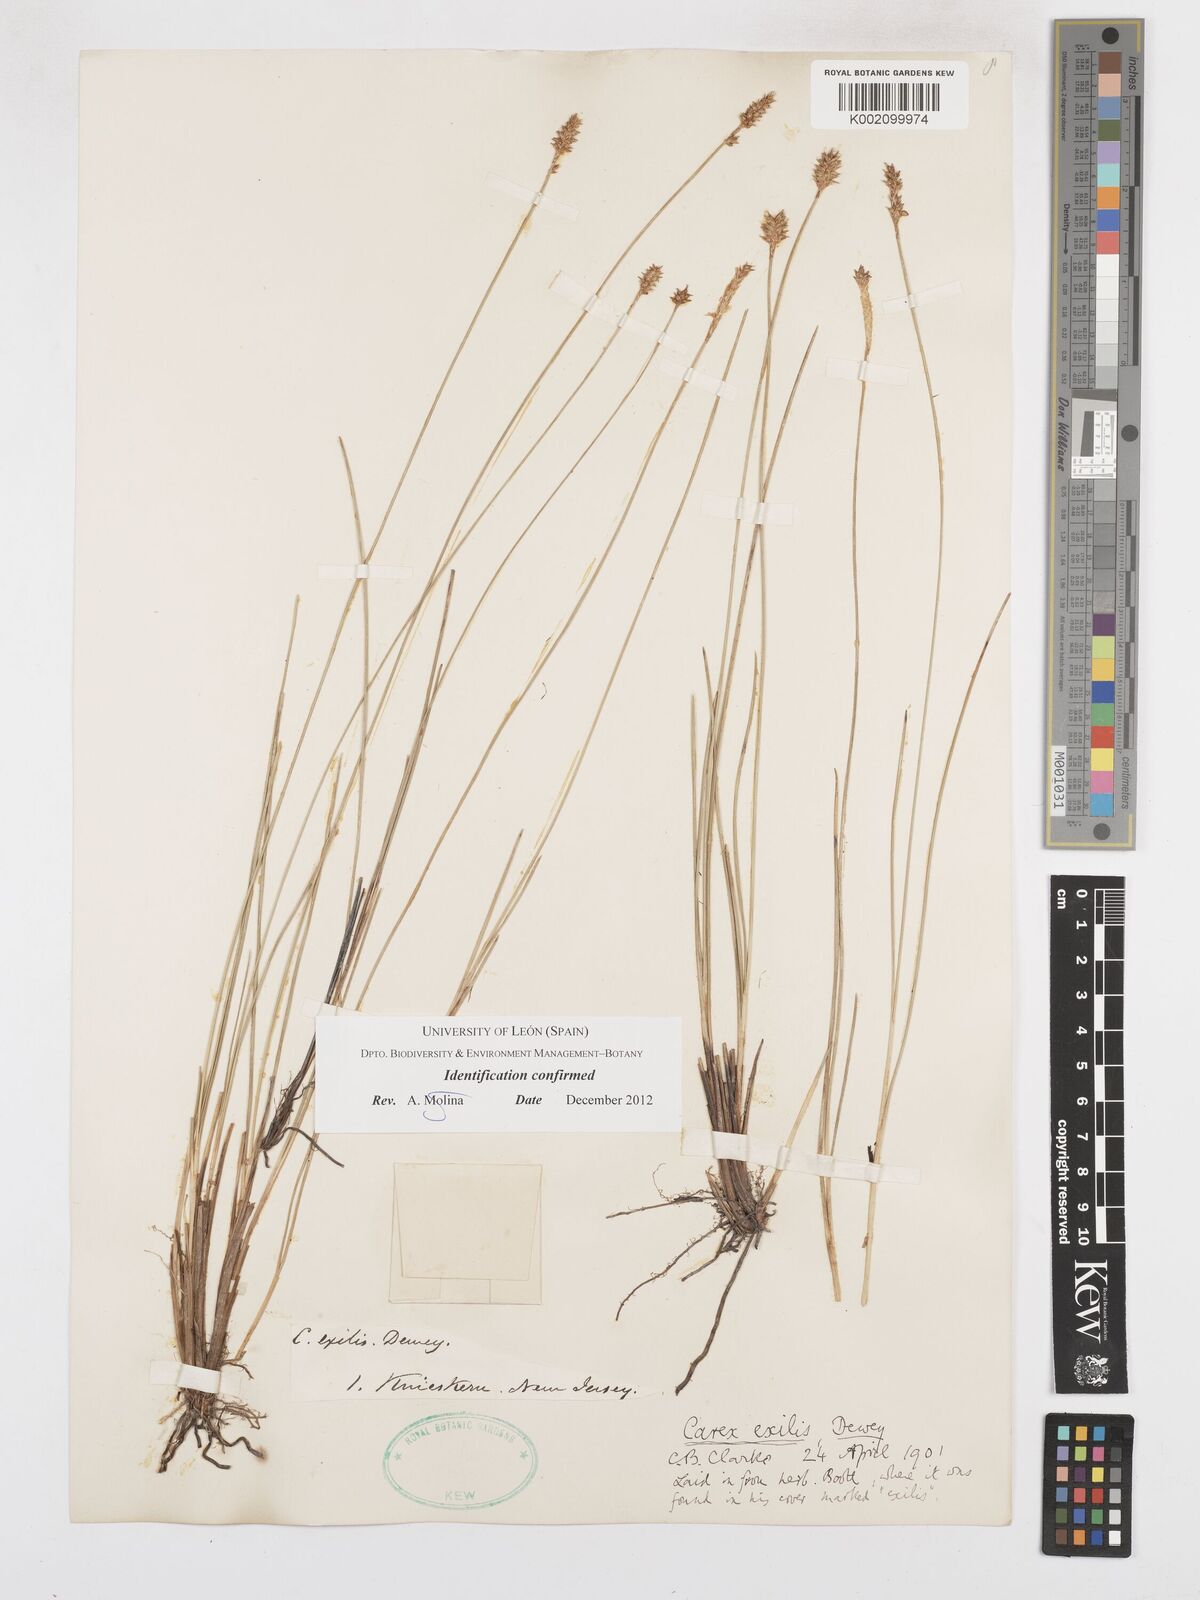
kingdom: Plantae
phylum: Tracheophyta
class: Liliopsida
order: Poales
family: Cyperaceae
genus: Carex
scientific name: Carex exilis
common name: Coastal sedge
